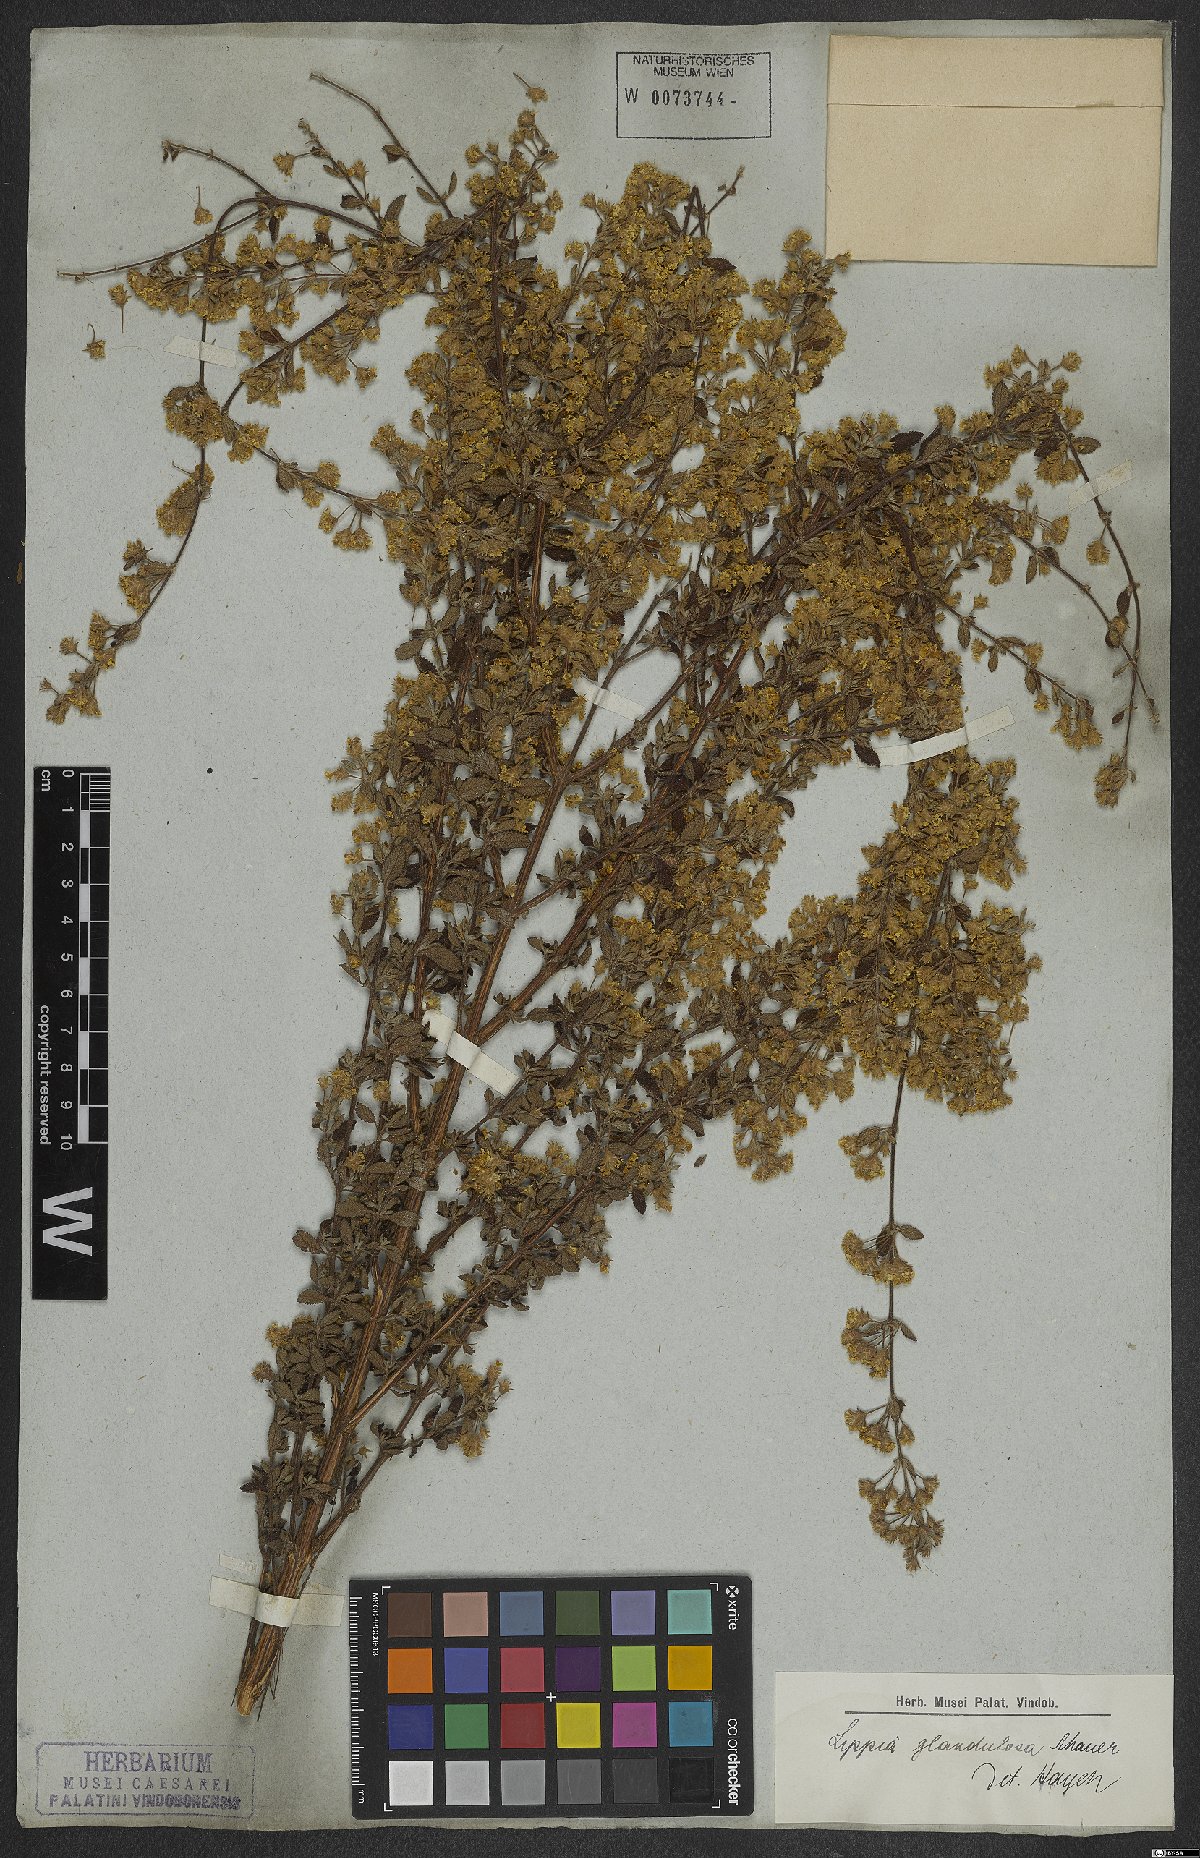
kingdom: Plantae
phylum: Tracheophyta
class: Magnoliopsida
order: Lamiales
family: Verbenaceae
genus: Lippia
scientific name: Lippia origanoides
